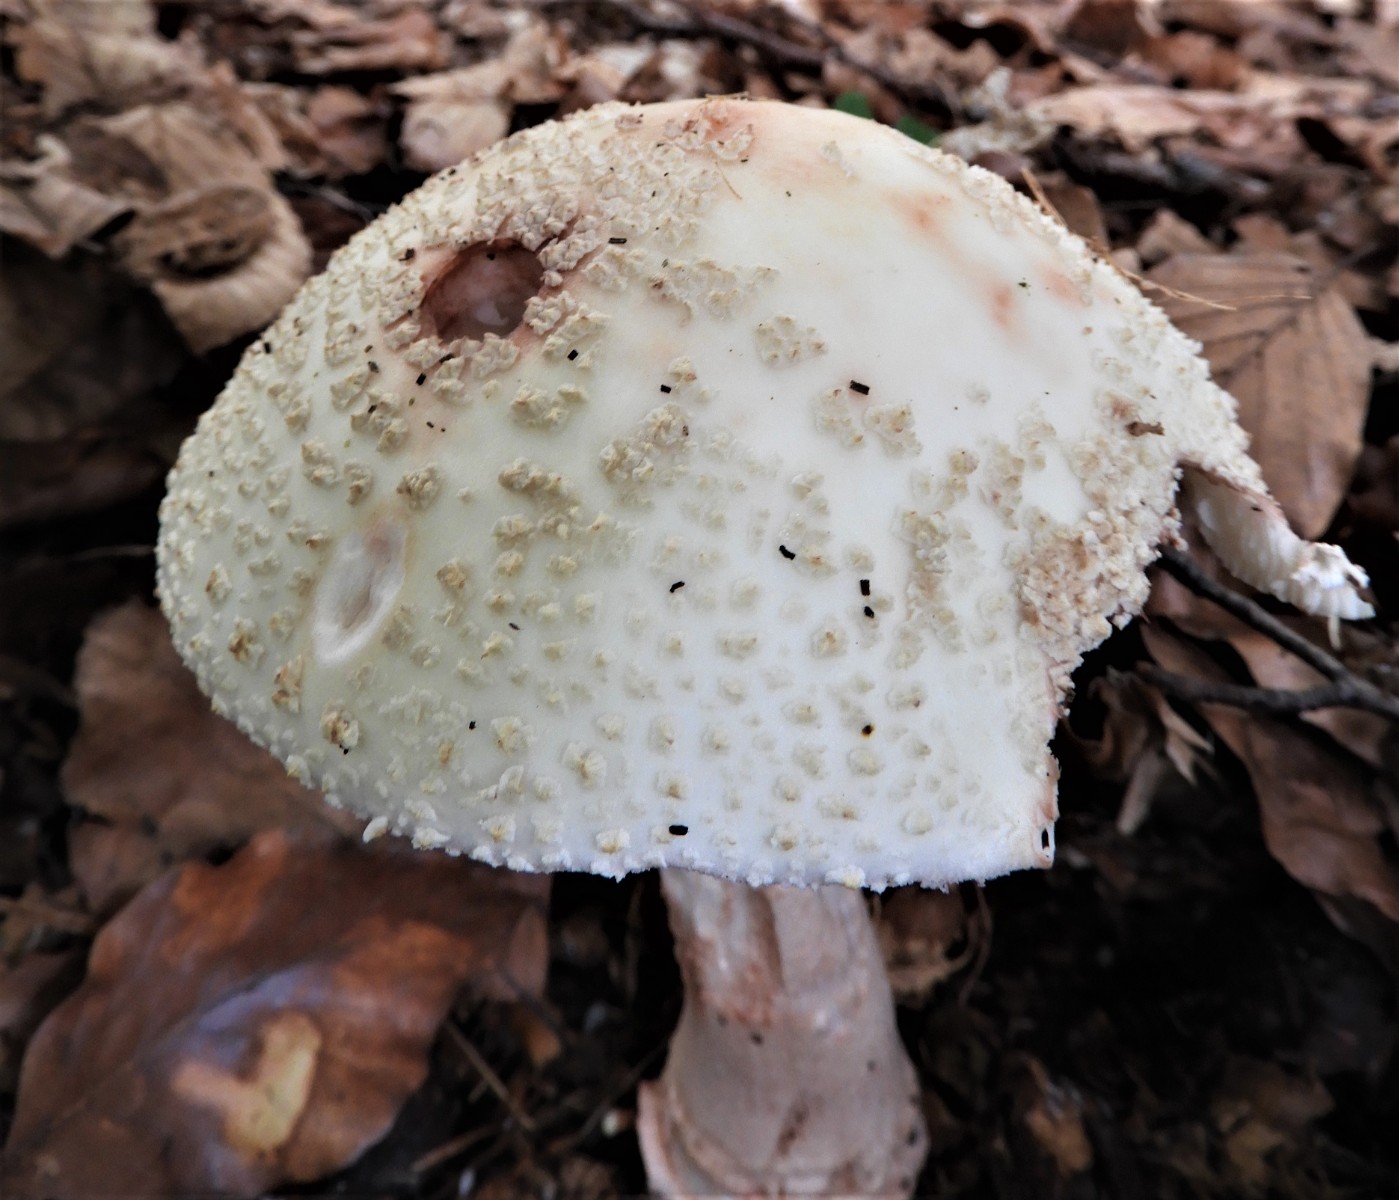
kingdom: Fungi
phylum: Basidiomycota
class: Agaricomycetes
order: Agaricales
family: Amanitaceae
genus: Amanita
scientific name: Amanita rubescens
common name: rødmende fluesvamp
